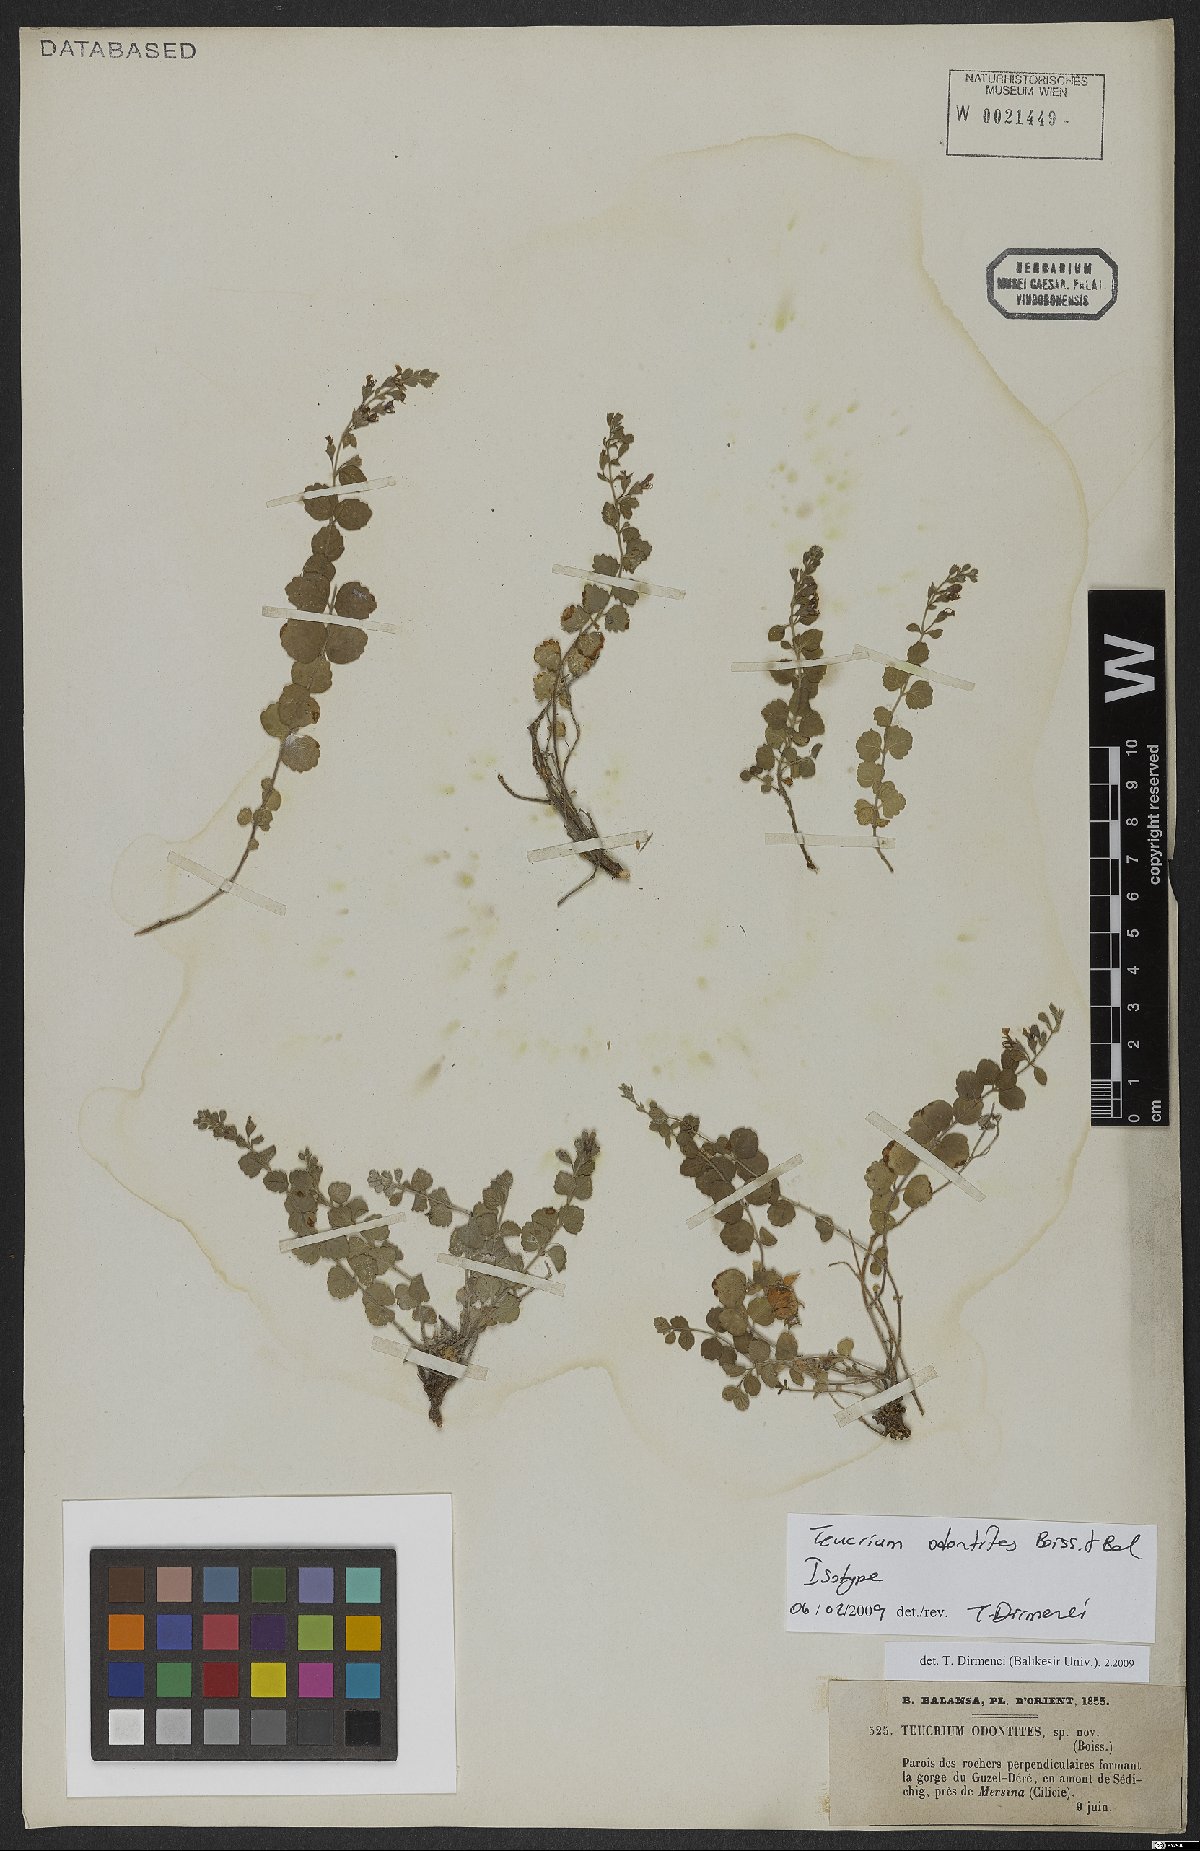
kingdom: Plantae
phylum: Tracheophyta
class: Magnoliopsida
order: Lamiales
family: Lamiaceae
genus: Teucrium
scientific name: Teucrium odontites
